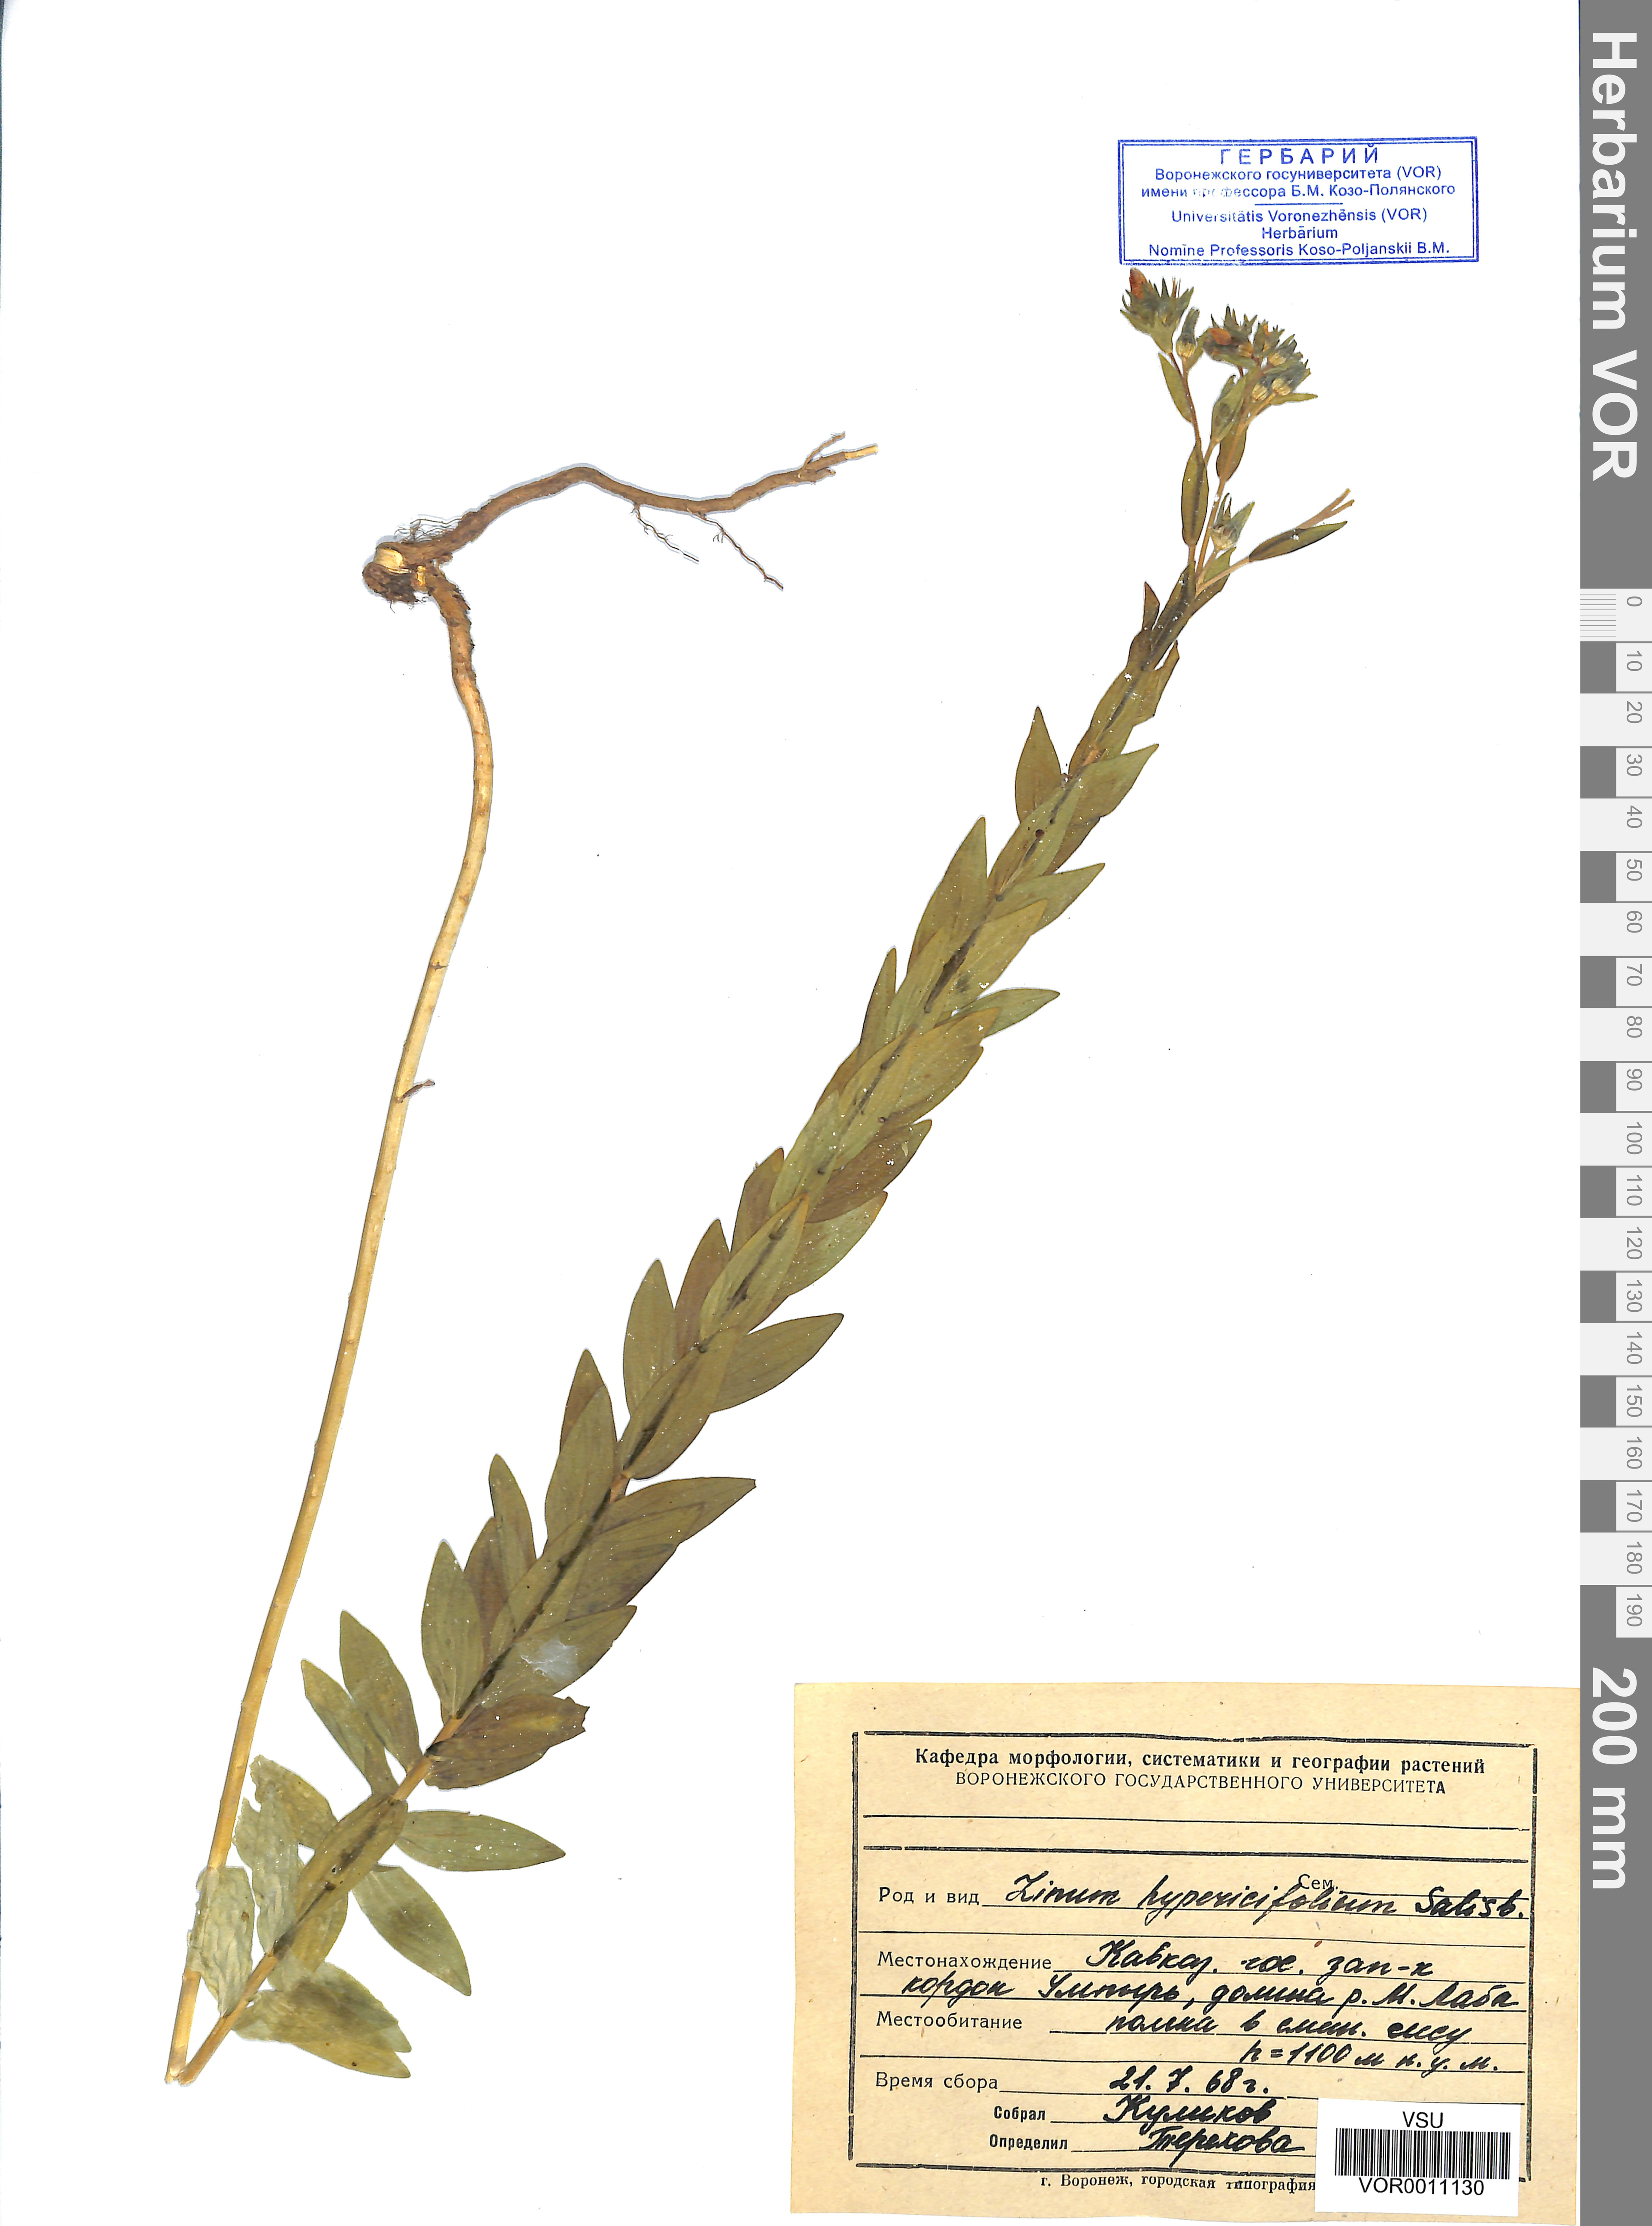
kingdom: Plantae
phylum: Tracheophyta
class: Magnoliopsida
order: Malpighiales
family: Linaceae
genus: Linum
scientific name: Linum hypericifolium
